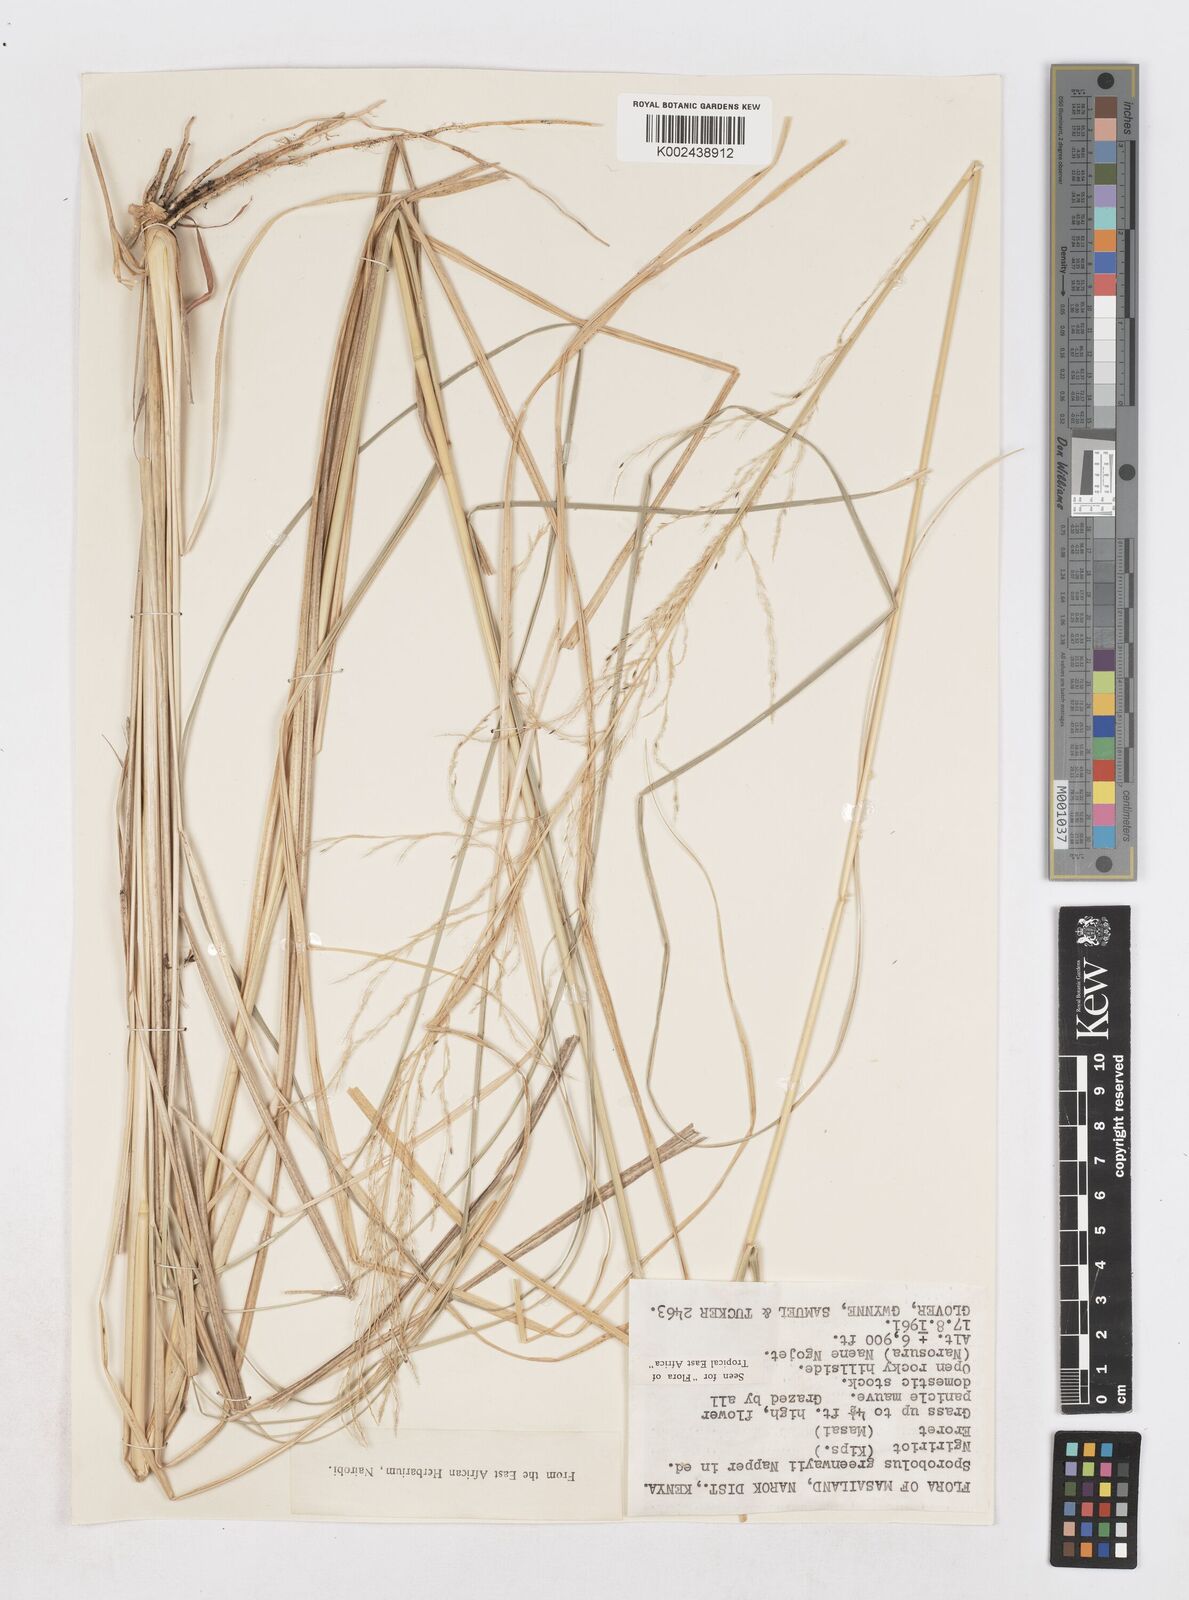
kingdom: Plantae
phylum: Tracheophyta
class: Liliopsida
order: Poales
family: Poaceae
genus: Sporobolus
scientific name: Sporobolus macranthelus
